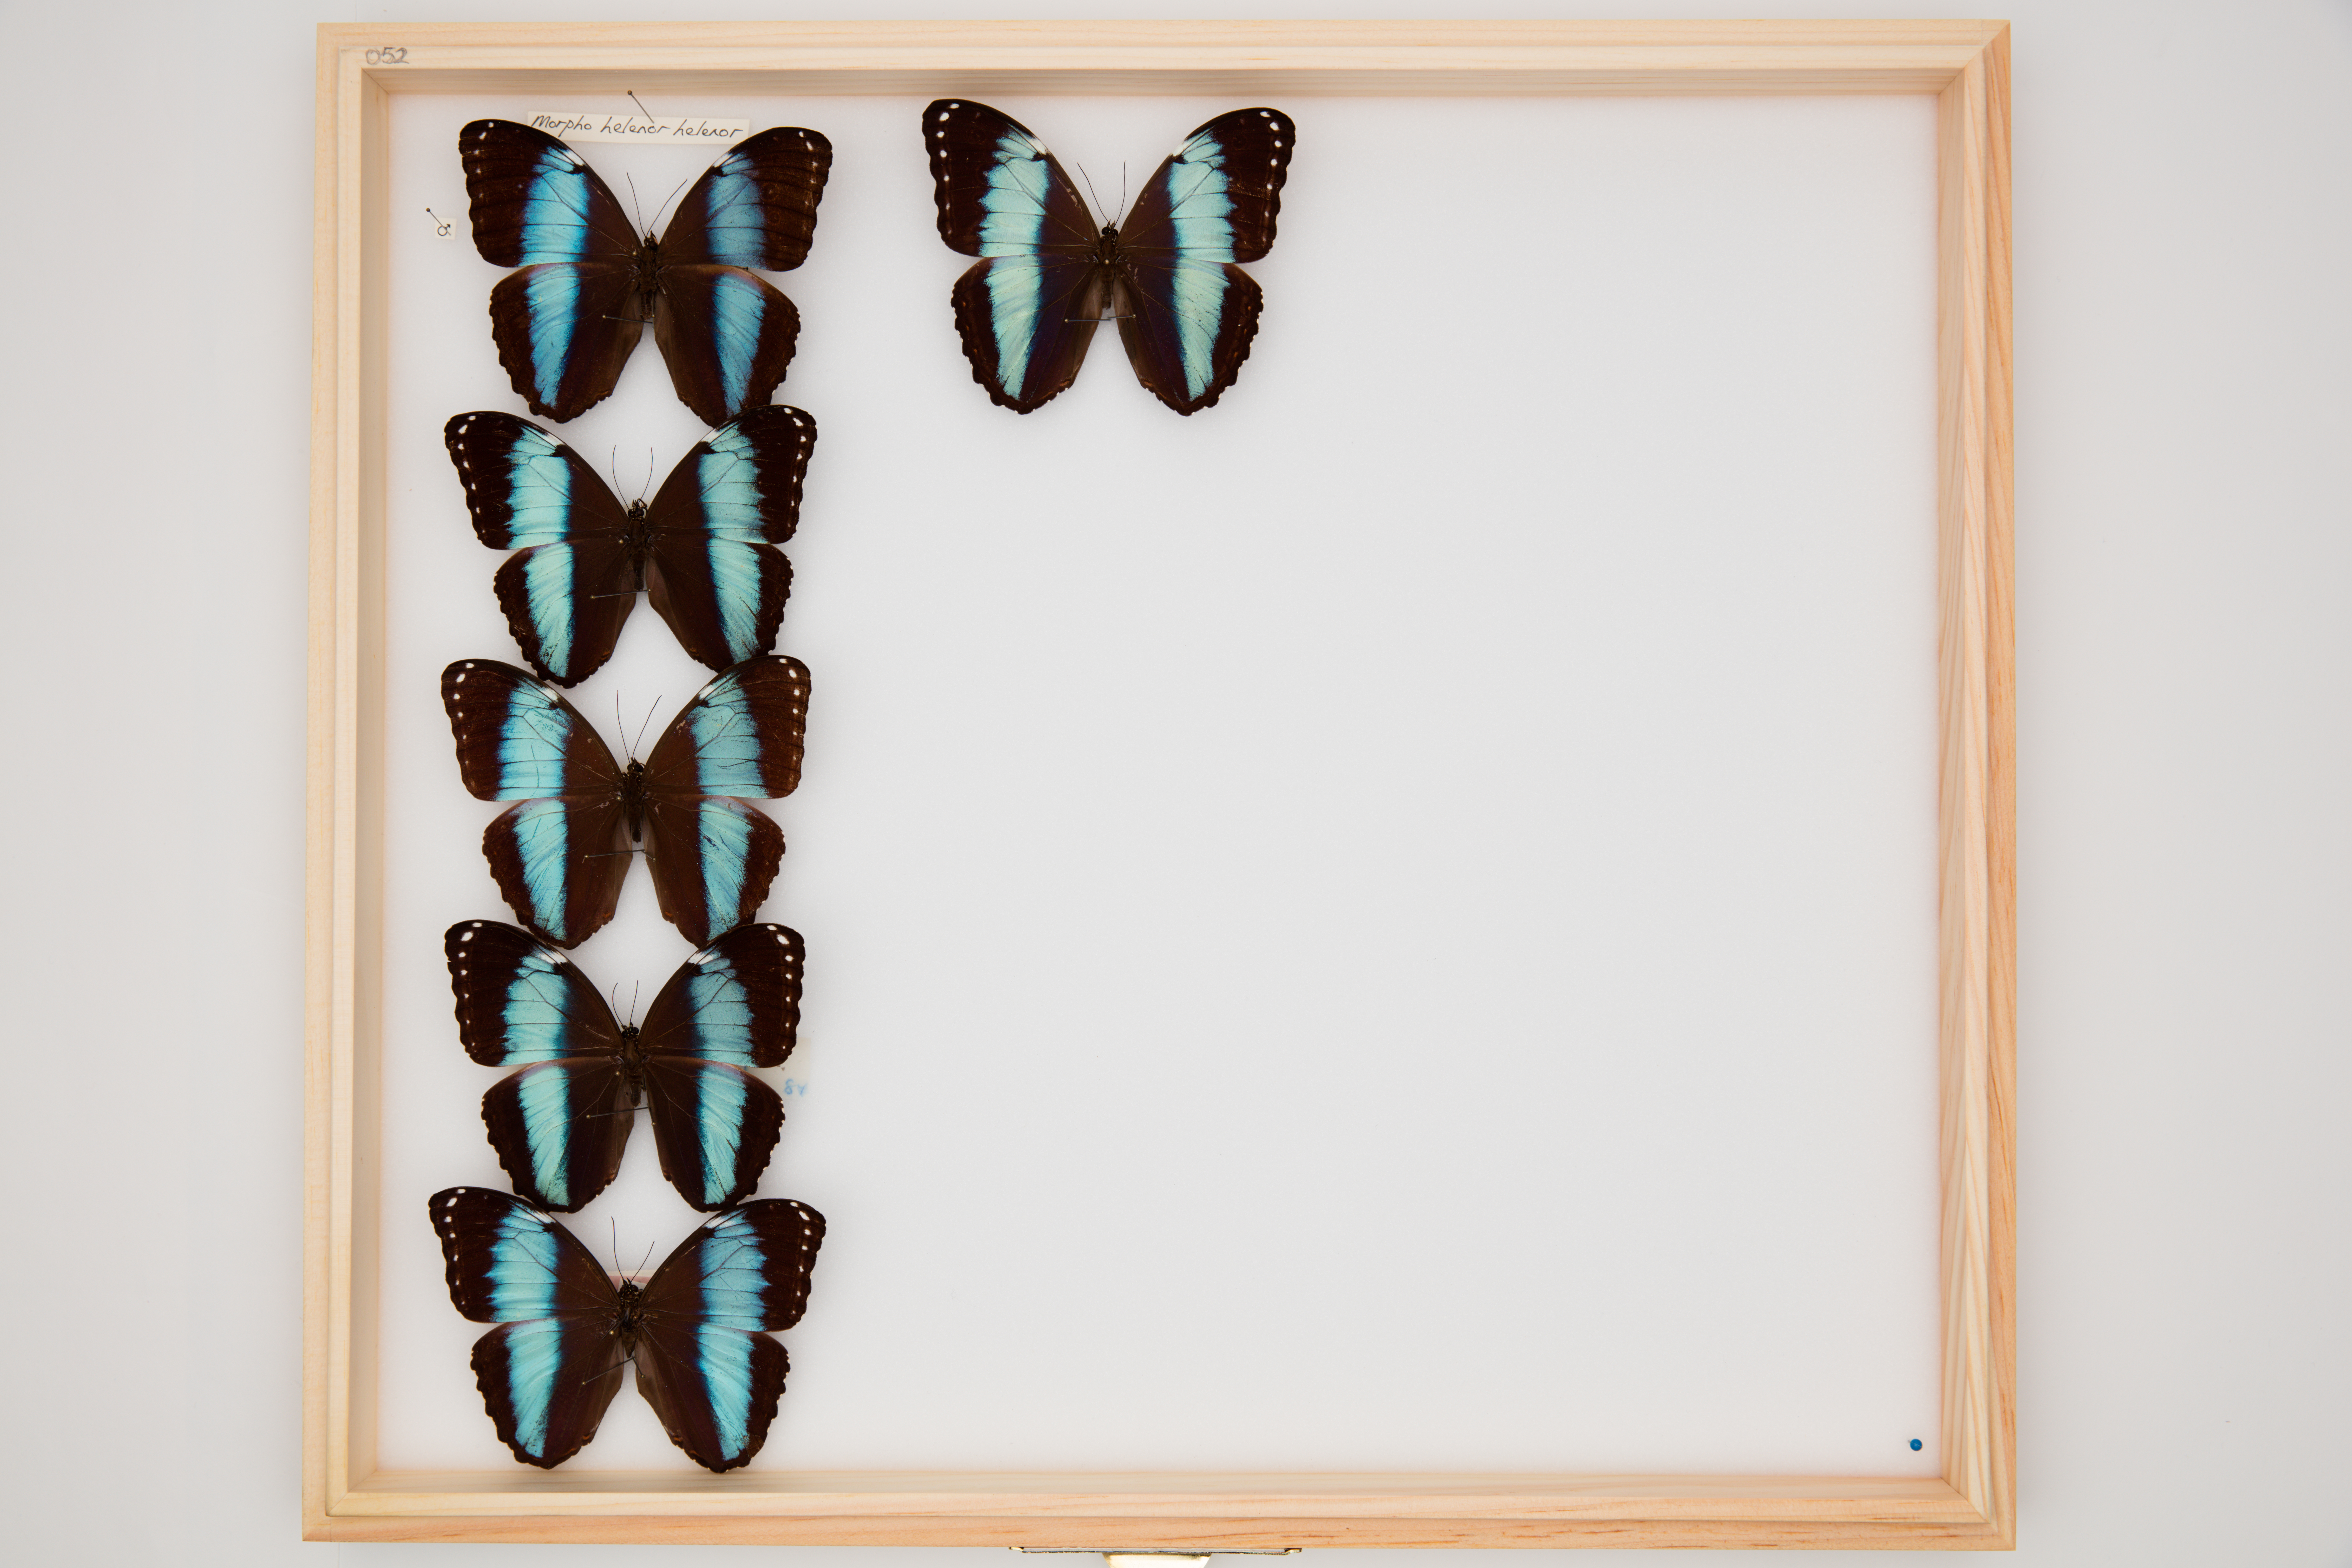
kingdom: Animalia
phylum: Arthropoda
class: Insecta
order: Lepidoptera
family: Nymphalidae
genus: Morpho
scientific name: Morpho helenor
